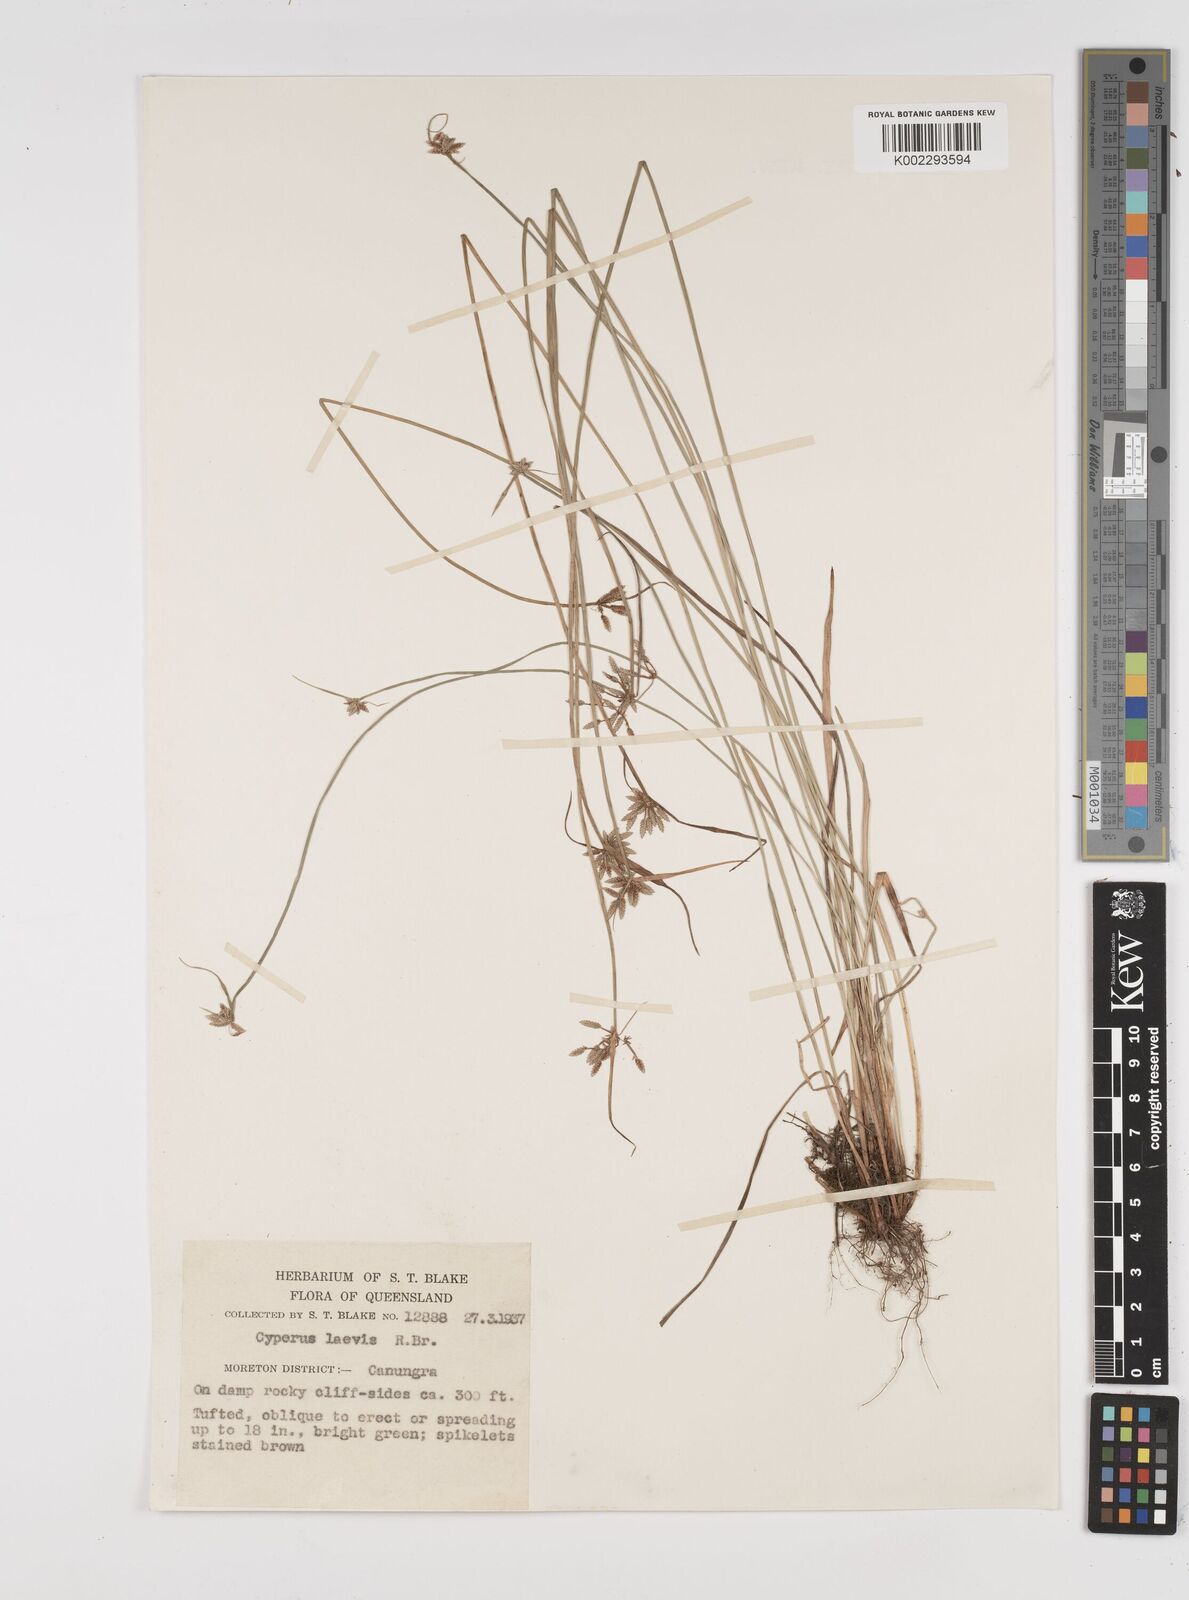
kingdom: Plantae
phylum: Tracheophyta
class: Liliopsida
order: Poales
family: Cyperaceae
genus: Cyperus
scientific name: Cyperus laevis
